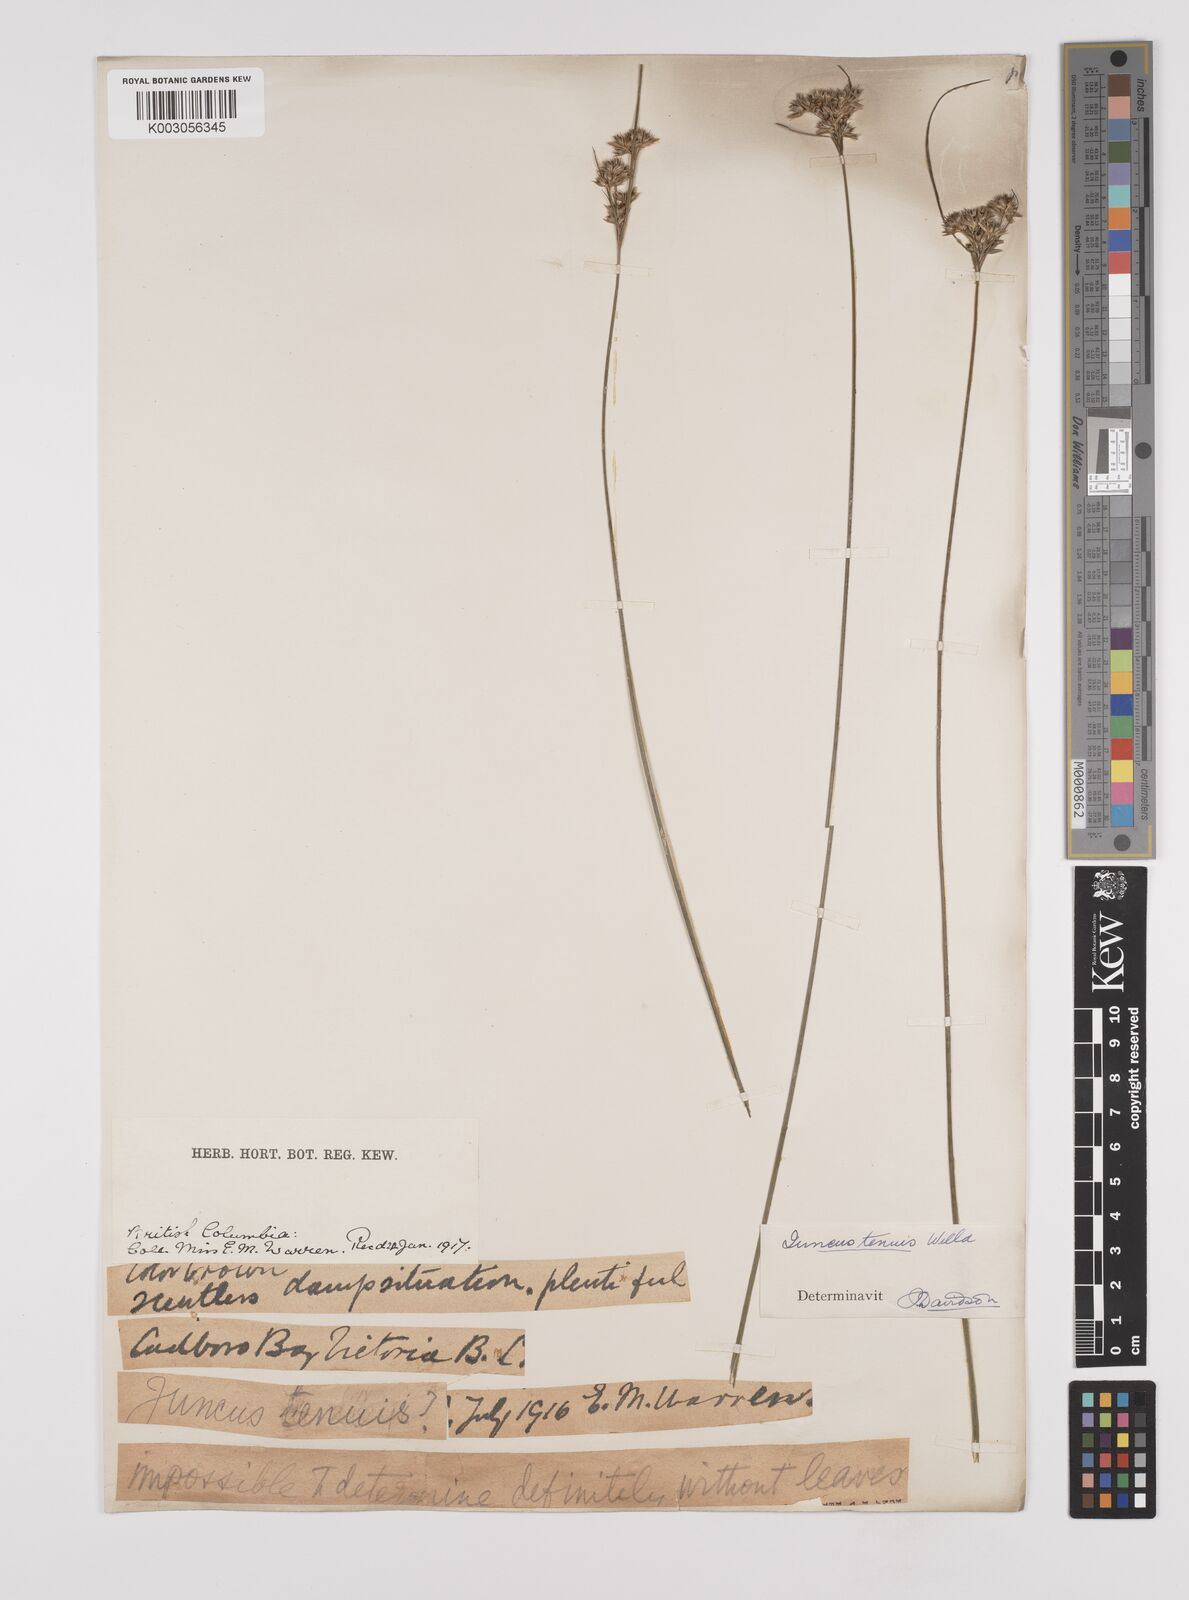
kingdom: Plantae
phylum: Tracheophyta
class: Liliopsida
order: Poales
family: Juncaceae
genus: Juncus
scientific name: Juncus tenuis
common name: Slender rush
